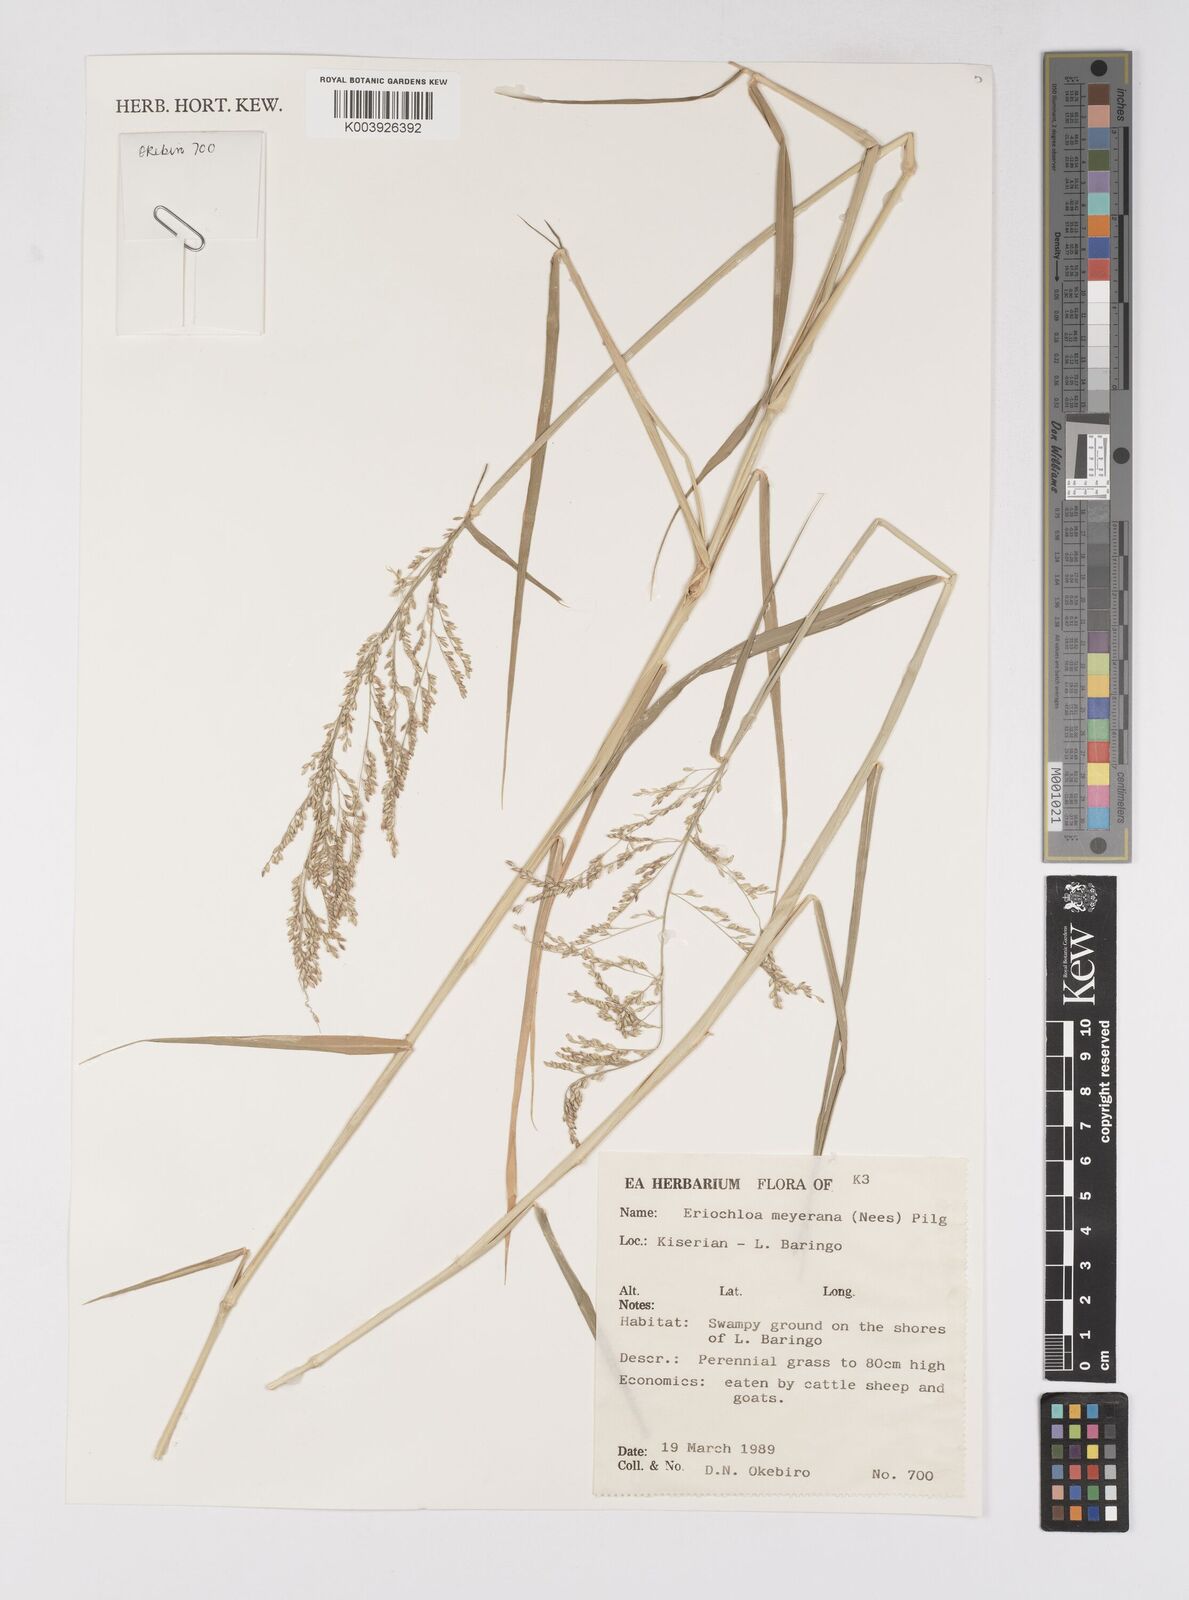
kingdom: Plantae
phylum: Tracheophyta
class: Liliopsida
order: Poales
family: Poaceae
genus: Eriochloa
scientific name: Eriochloa meyeriana
